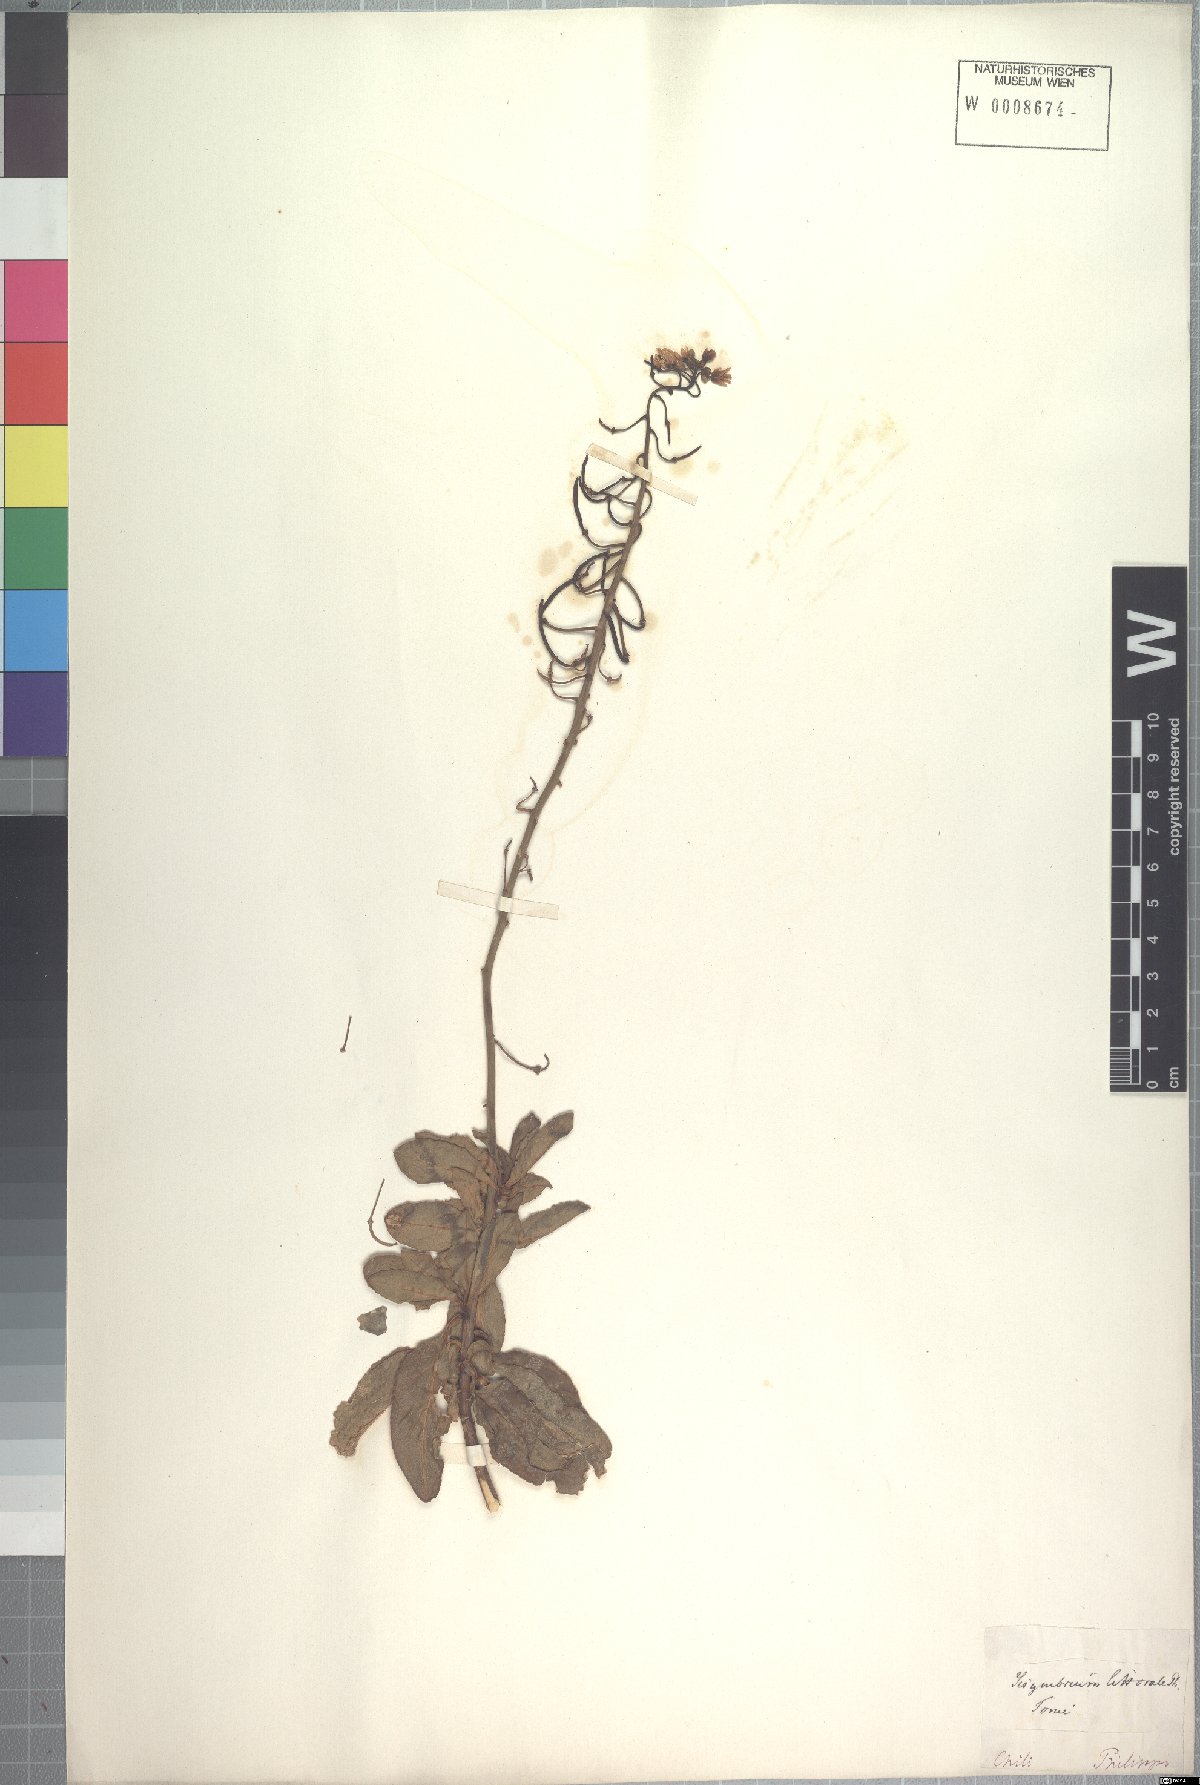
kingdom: Plantae
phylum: Tracheophyta
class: Magnoliopsida
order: Brassicales
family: Brassicaceae
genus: Polypsecadium
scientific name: Polypsecadium litorale
